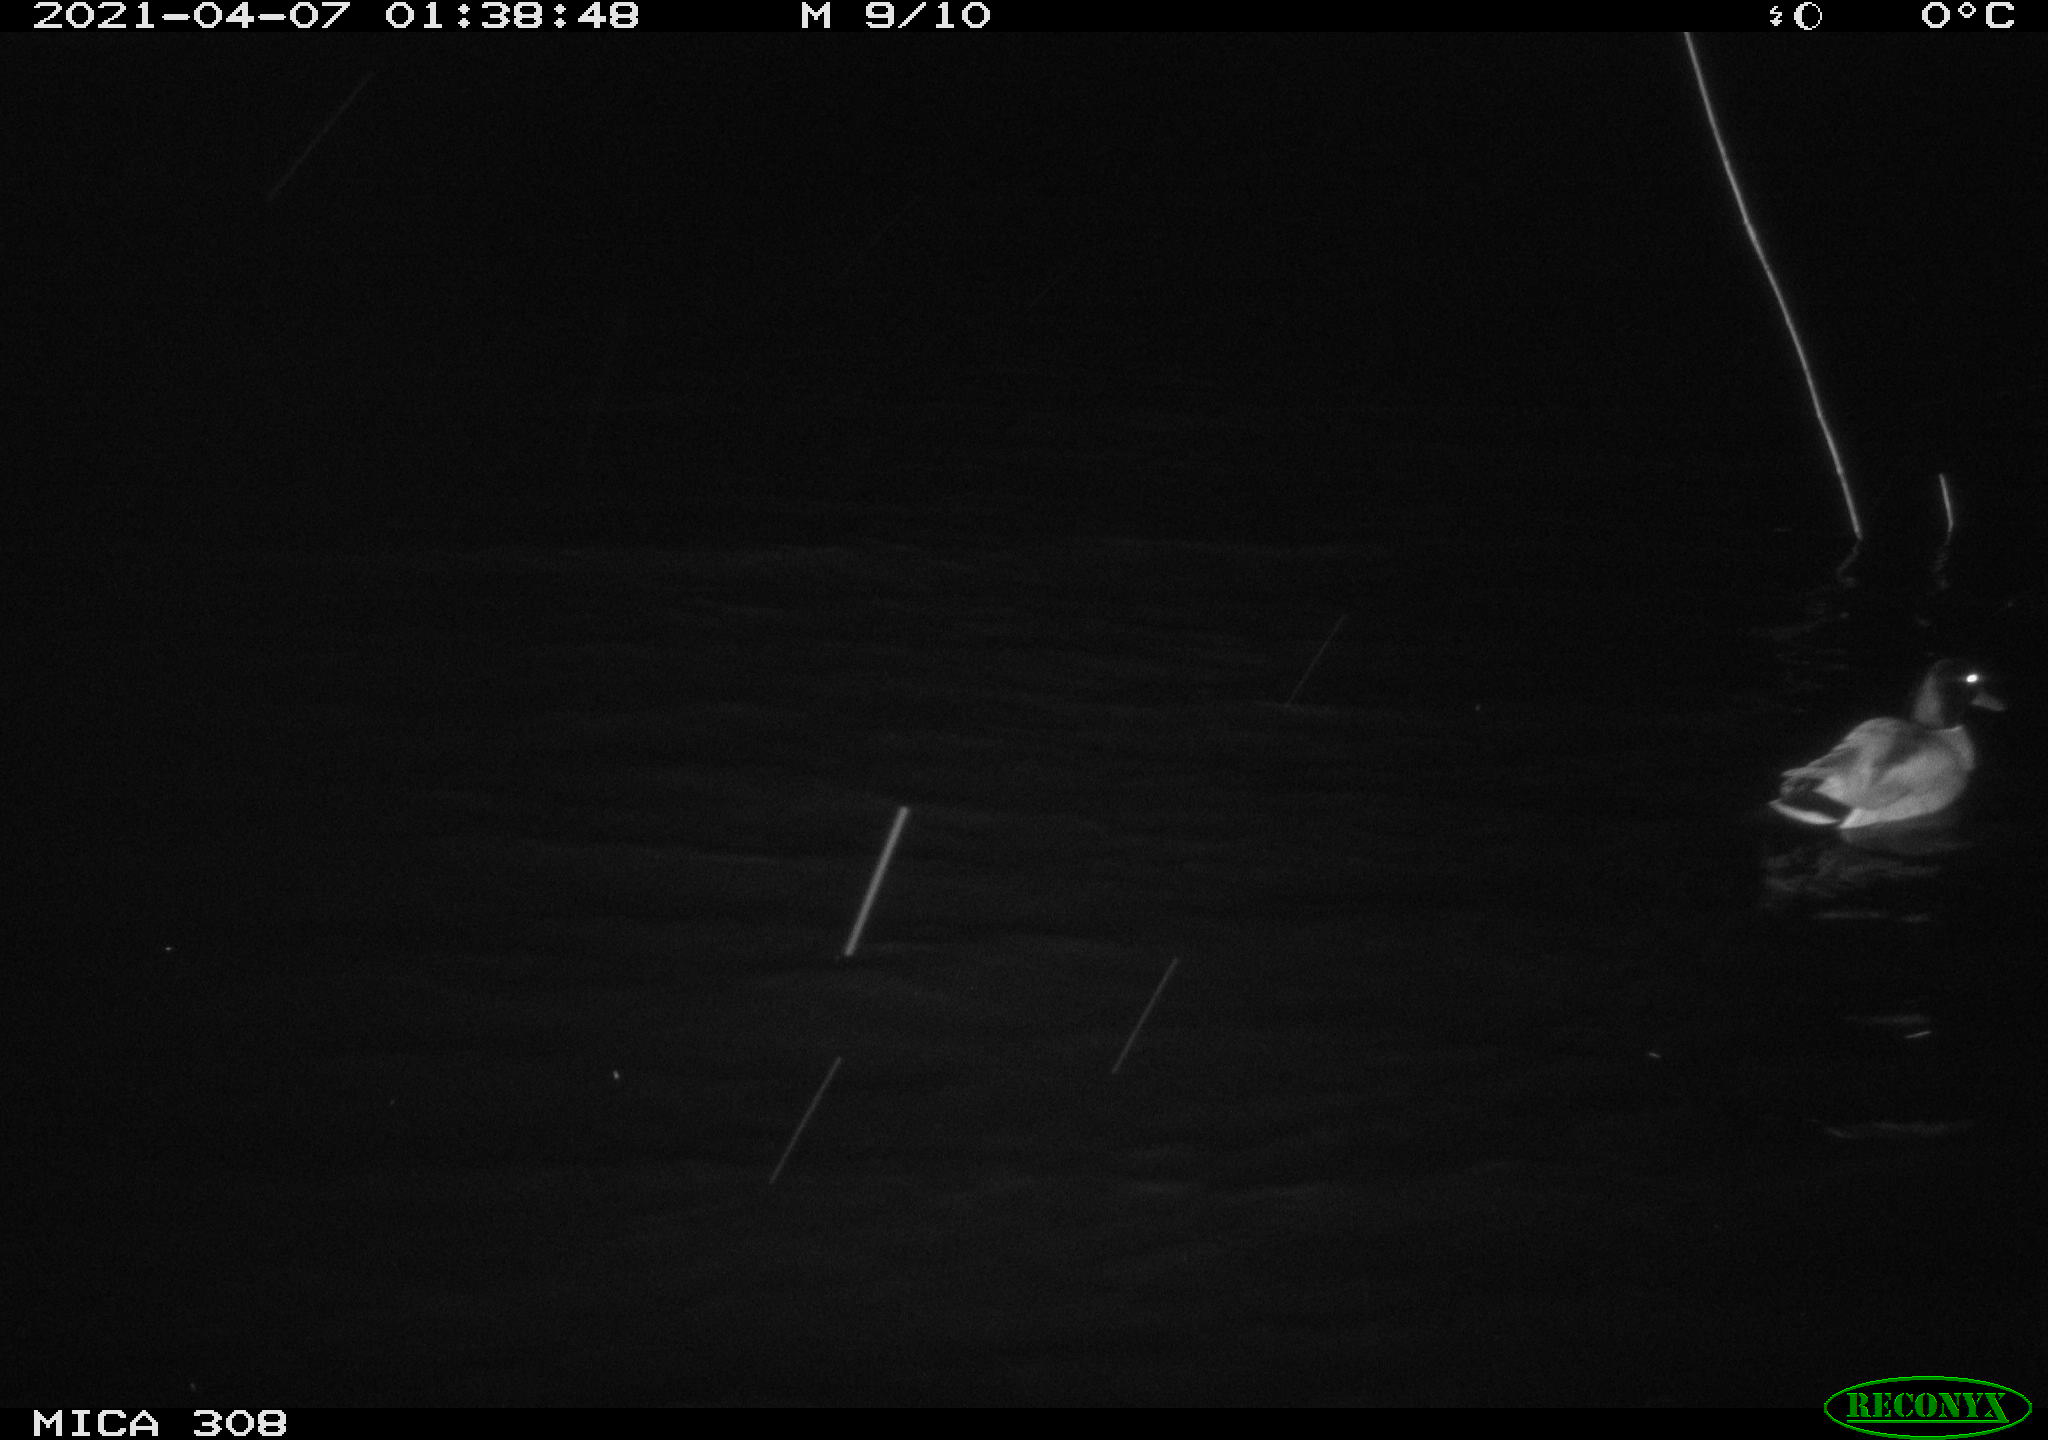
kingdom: Animalia
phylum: Chordata
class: Aves
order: Anseriformes
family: Anatidae
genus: Anas
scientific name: Anas platyrhynchos
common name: Mallard
